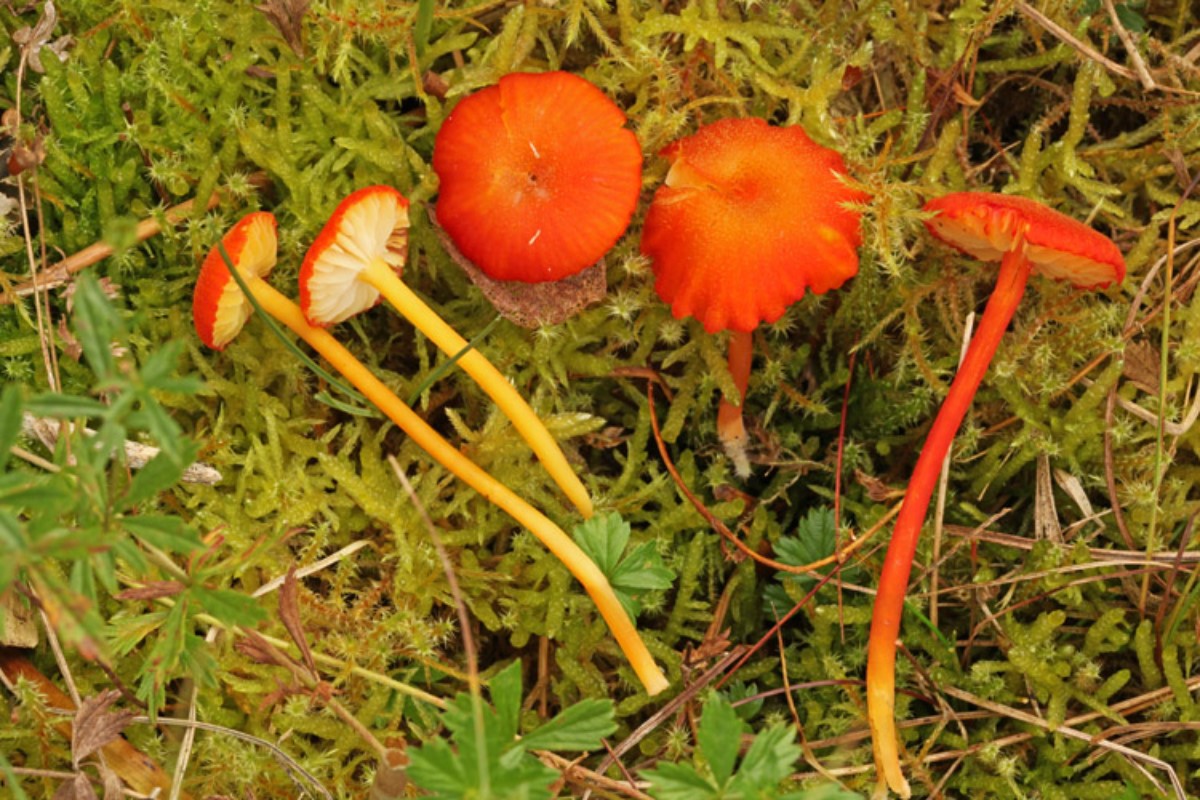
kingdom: Fungi
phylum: Basidiomycota
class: Agaricomycetes
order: Agaricales
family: Hygrophoraceae
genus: Hygrocybe
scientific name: Hygrocybe helobia
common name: hvidløgs-vokshat
